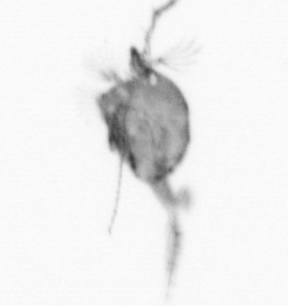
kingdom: Animalia
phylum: Arthropoda
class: Copepoda
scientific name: Copepoda
